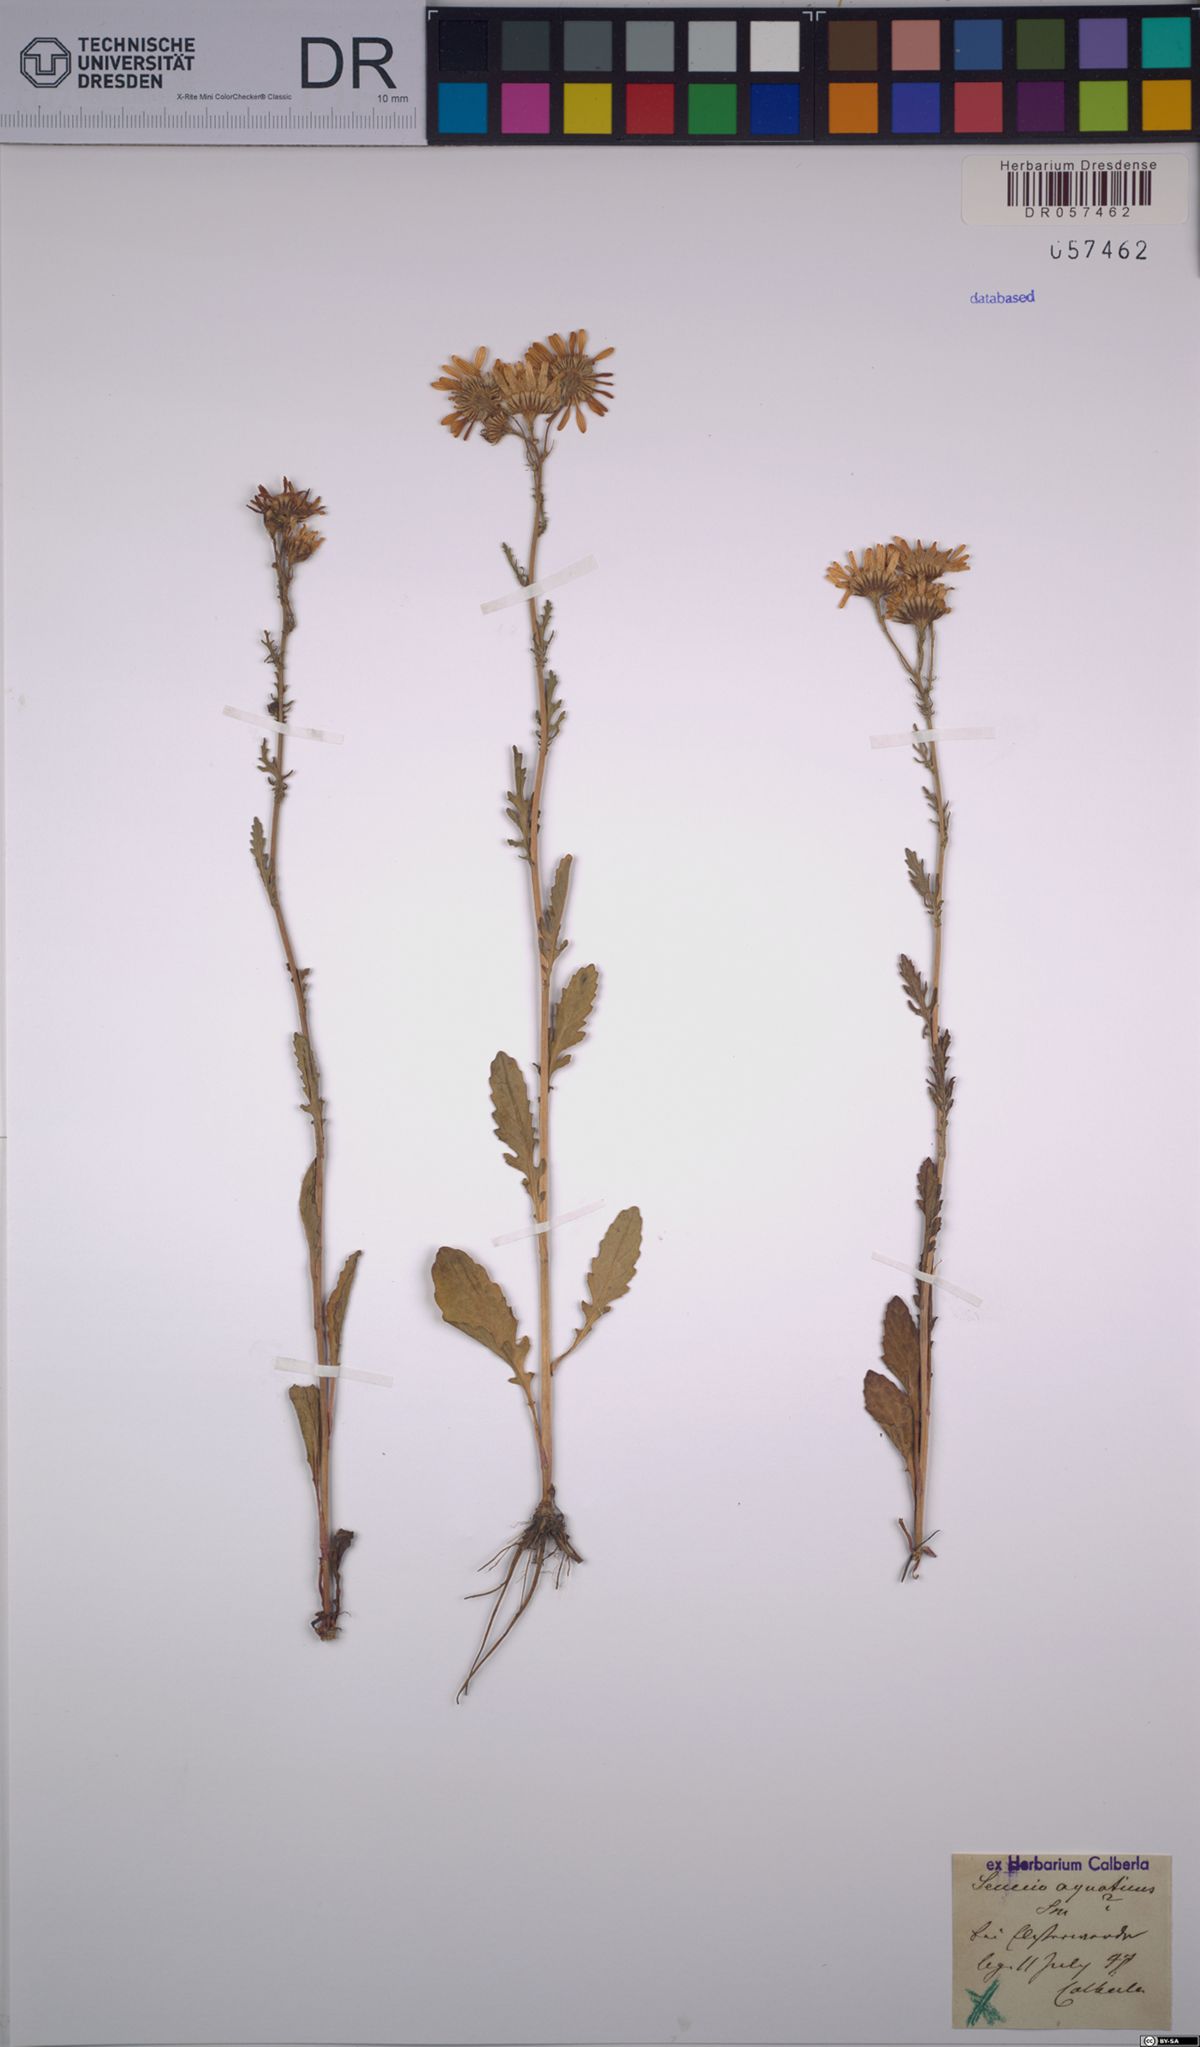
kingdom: Plantae
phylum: Tracheophyta
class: Magnoliopsida
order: Asterales
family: Asteraceae
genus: Jacobaea
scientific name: Jacobaea aquatica
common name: Water ragwort
